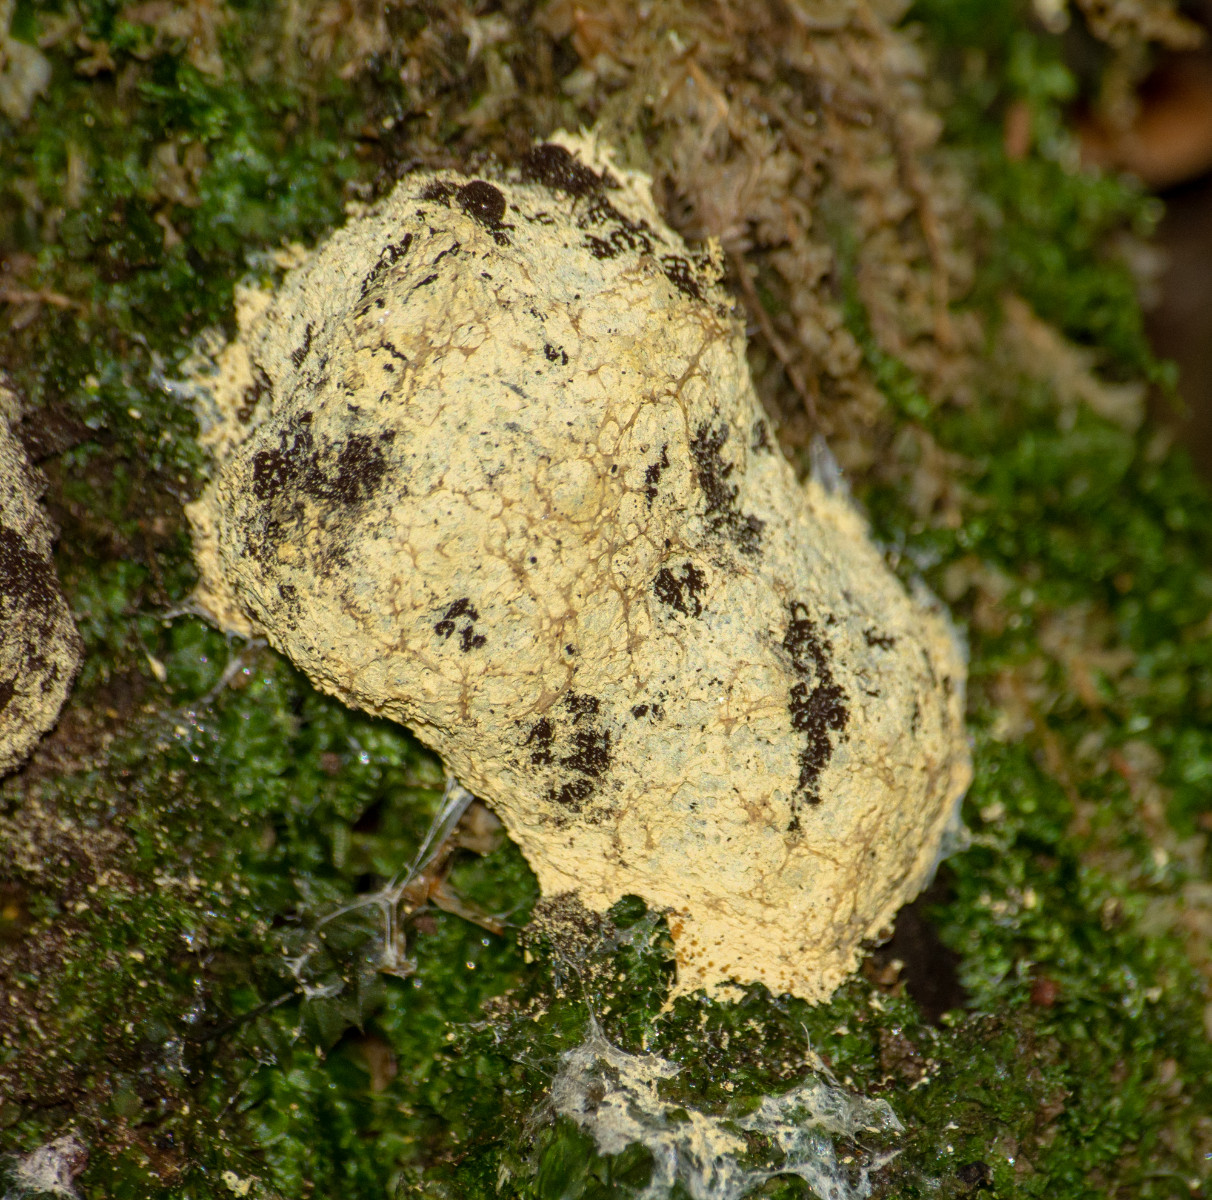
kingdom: Protozoa
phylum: Mycetozoa
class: Myxomycetes
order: Physarales
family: Physaraceae
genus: Fuligo
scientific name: Fuligo septica
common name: gul troldsmør
